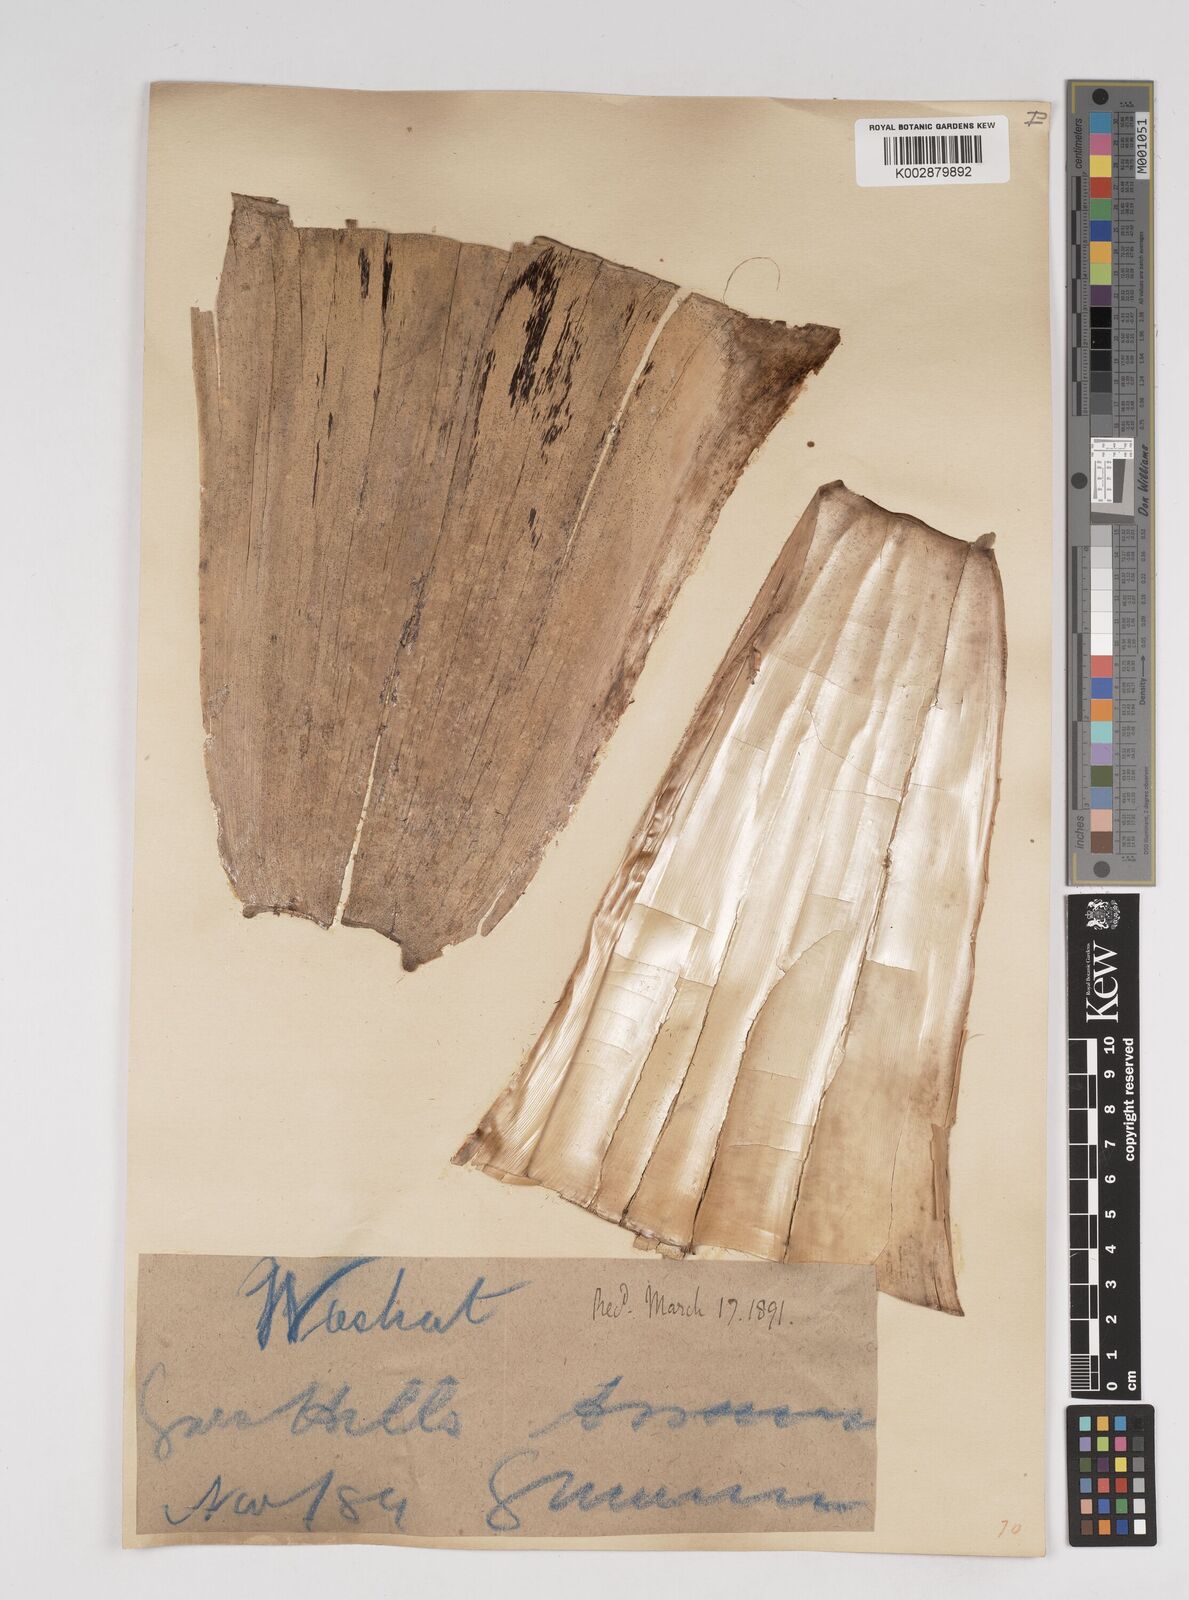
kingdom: Plantae
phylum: Tracheophyta
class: Liliopsida
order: Poales
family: Poaceae
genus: Gigantochloa
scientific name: Gigantochloa
